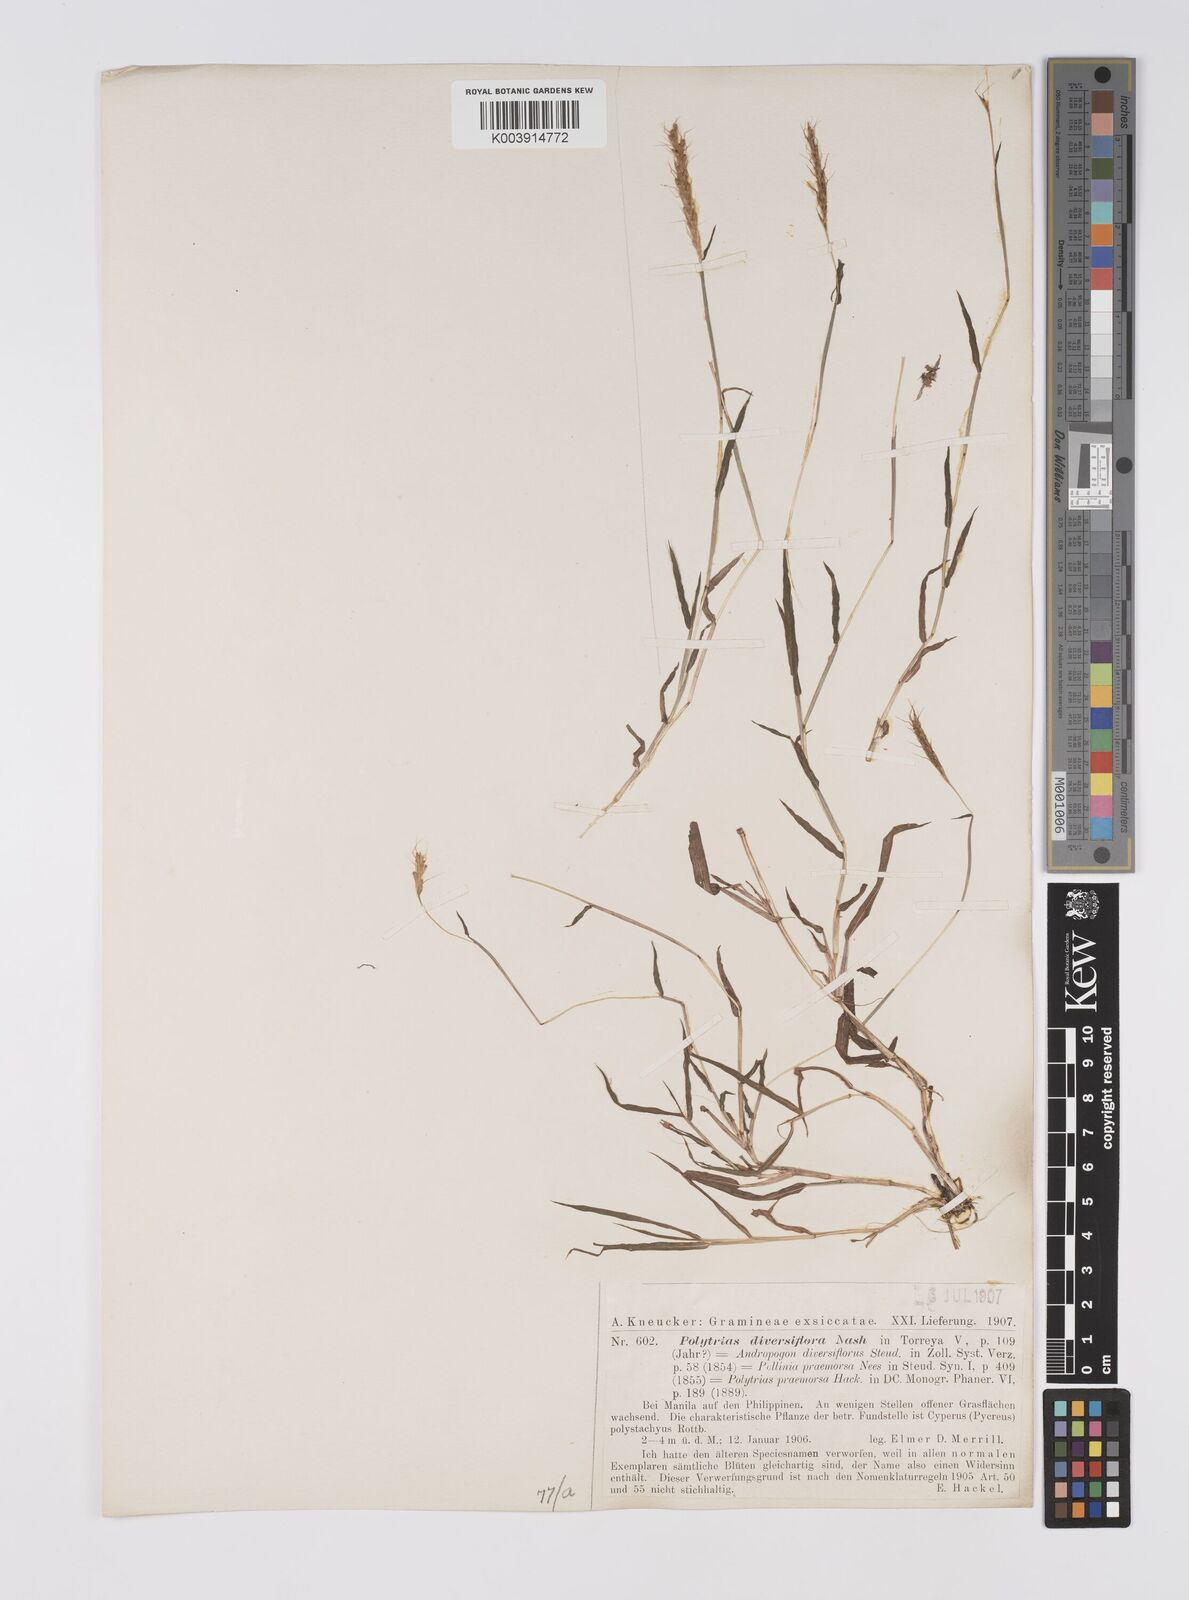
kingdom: Plantae
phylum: Tracheophyta
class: Liliopsida
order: Poales
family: Poaceae
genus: Polytrias
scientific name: Polytrias indica
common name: Indian murainagrass
